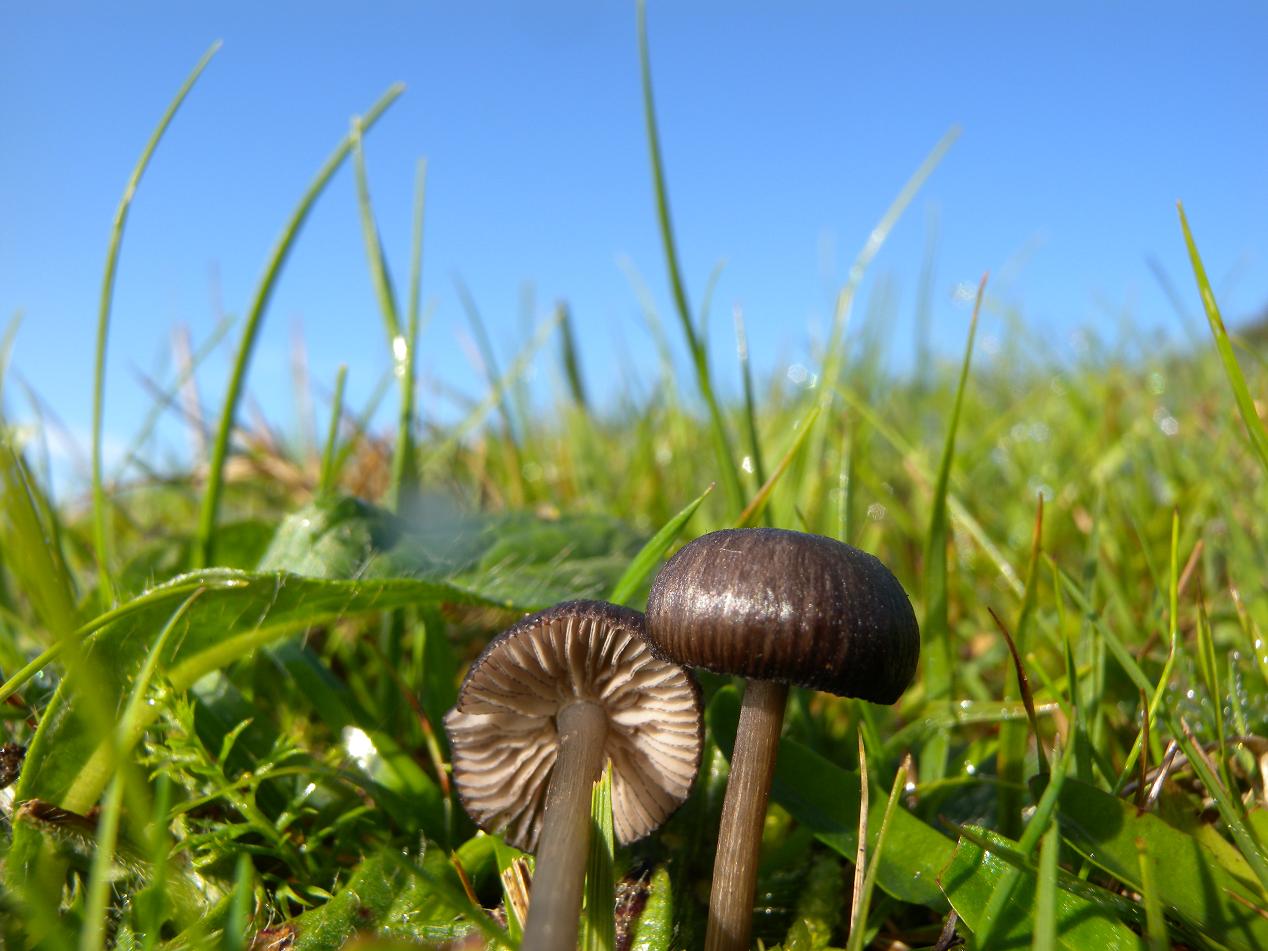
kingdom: Fungi
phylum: Basidiomycota
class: Agaricomycetes
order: Agaricales
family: Entolomataceae
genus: Entoloma
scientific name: Entoloma caesiocinctum
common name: Blue-girdled pinkgill
